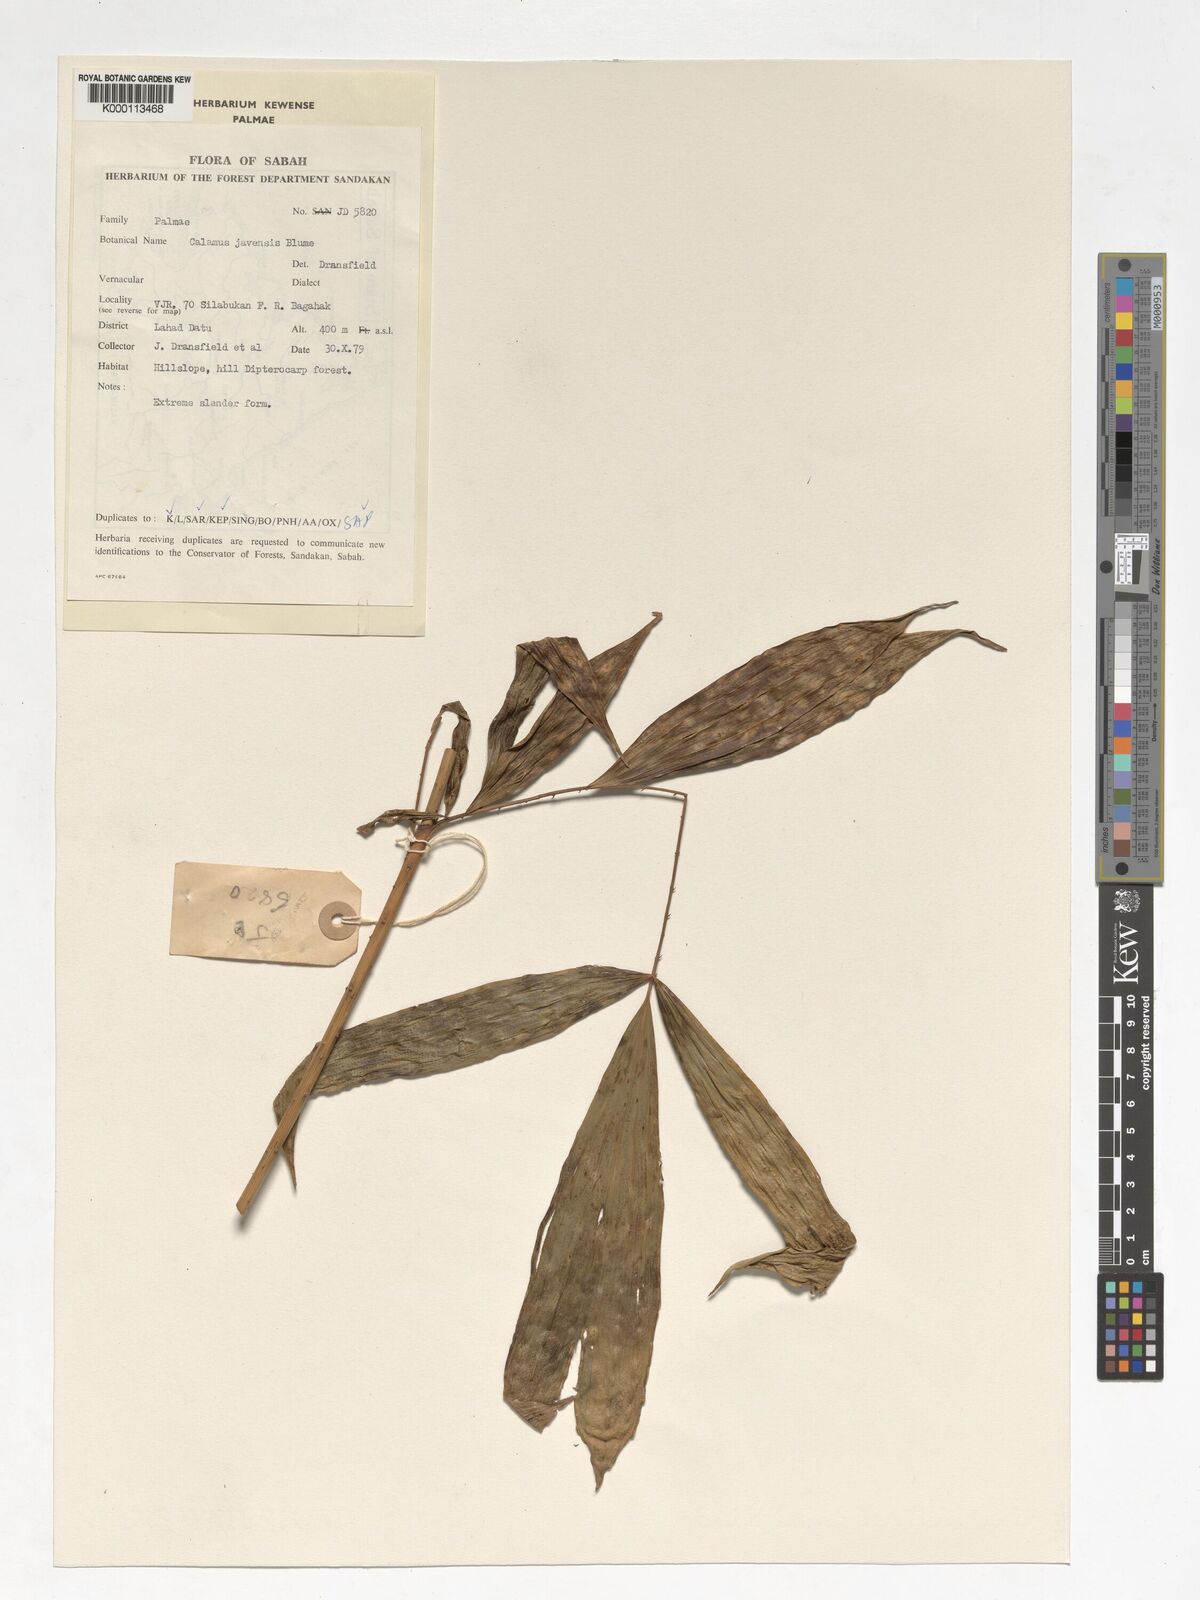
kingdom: Plantae
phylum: Tracheophyta
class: Liliopsida
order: Arecales
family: Arecaceae
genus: Calamus
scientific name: Calamus javensis
